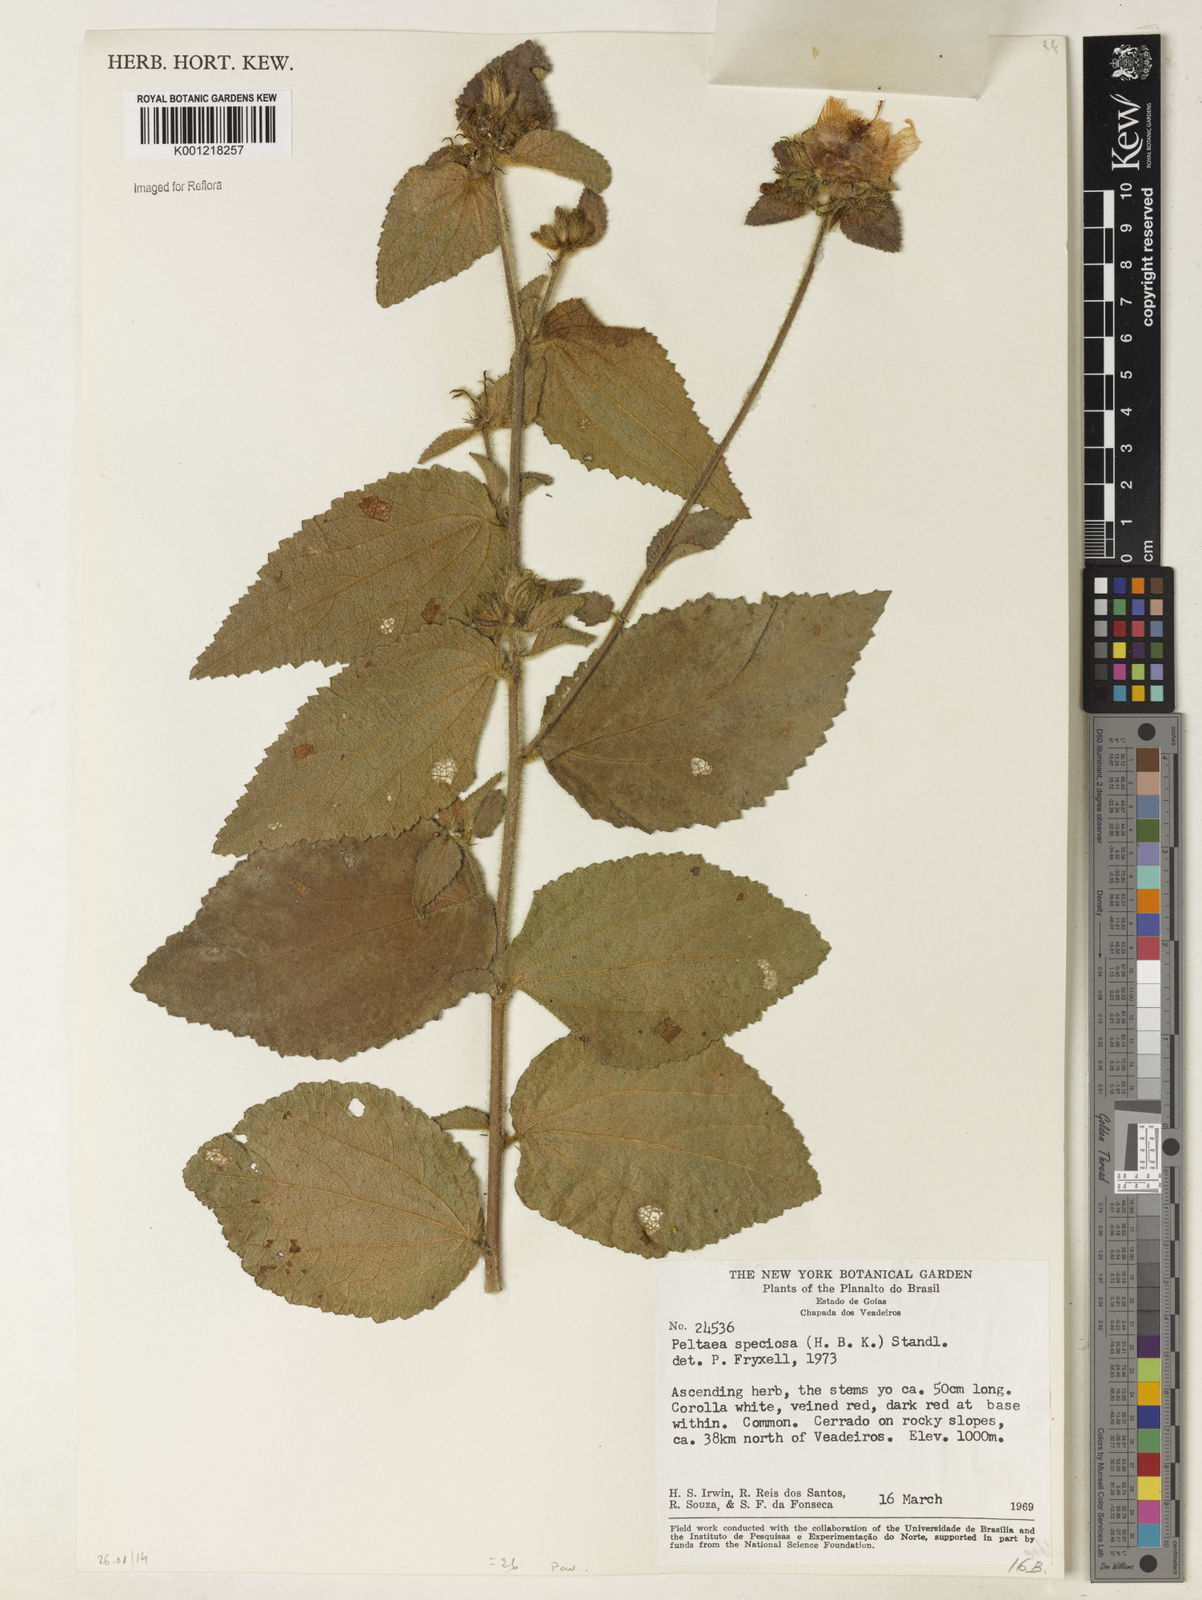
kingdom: Plantae
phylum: Tracheophyta
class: Magnoliopsida
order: Malvales
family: Malvaceae
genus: Peltaea
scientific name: Peltaea speciosa
